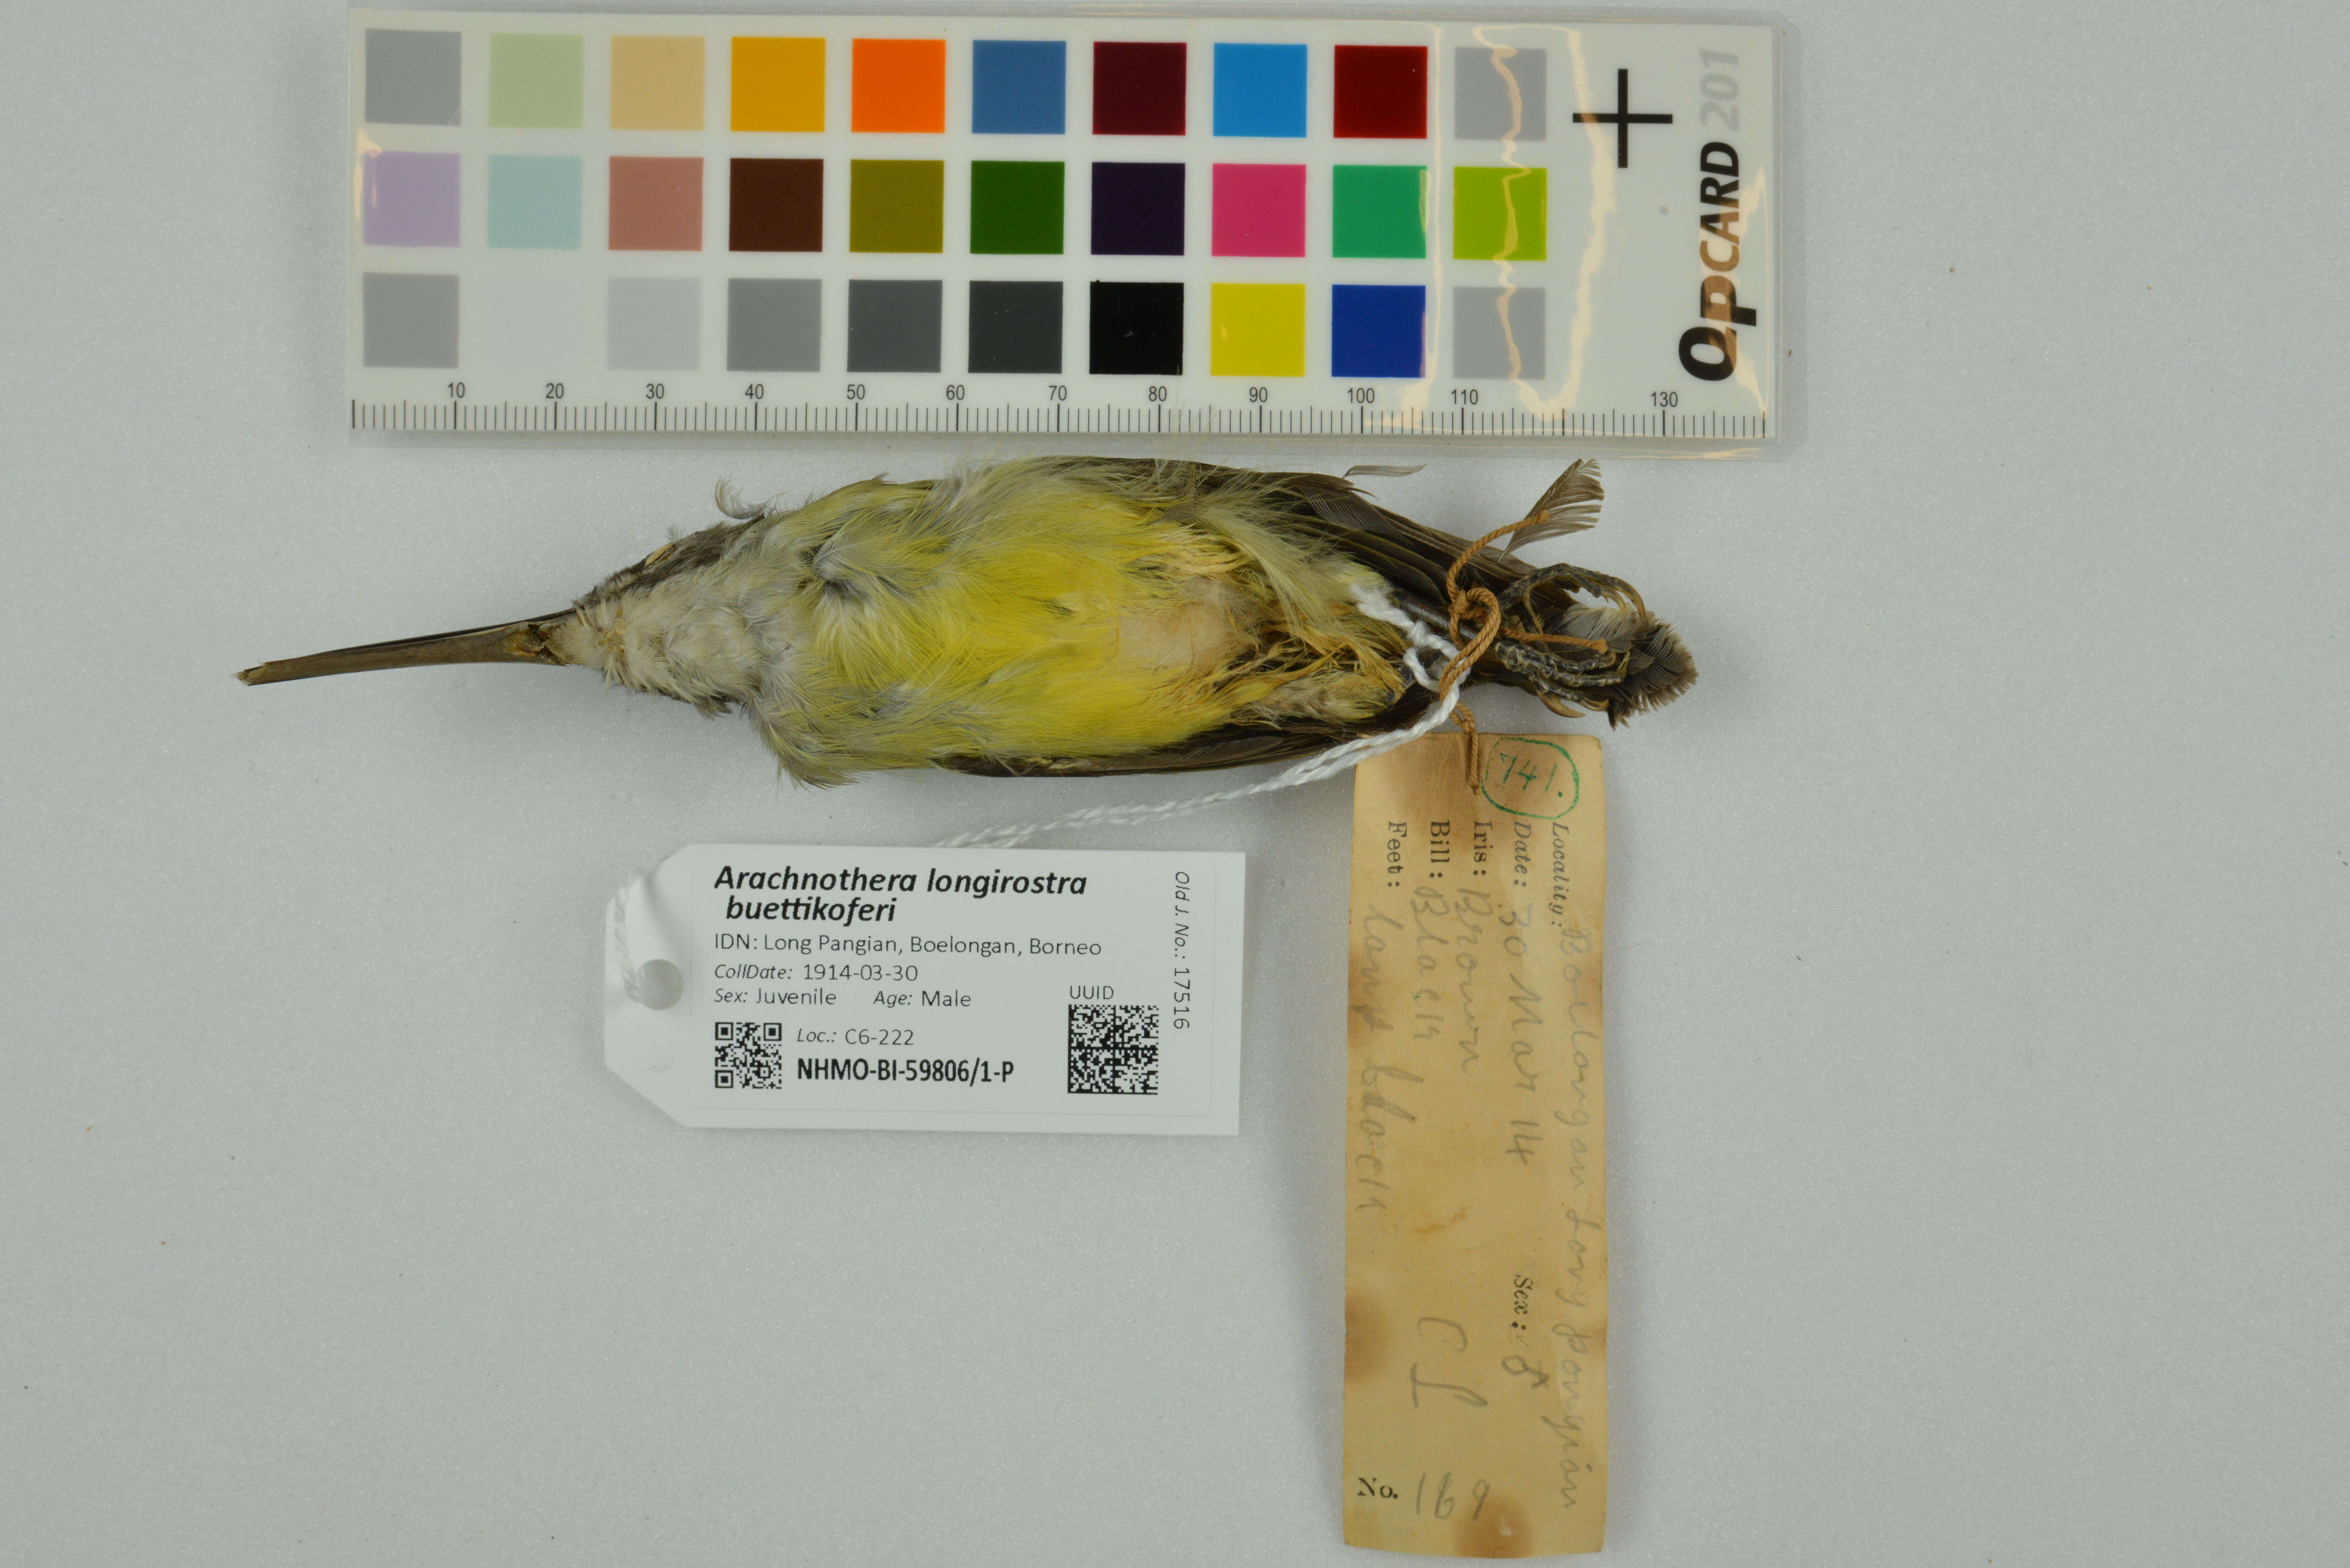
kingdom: Animalia
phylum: Chordata
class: Aves
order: Passeriformes
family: Nectariniidae
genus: Arachnothera
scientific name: Arachnothera longirostra
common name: Little spiderhunter
